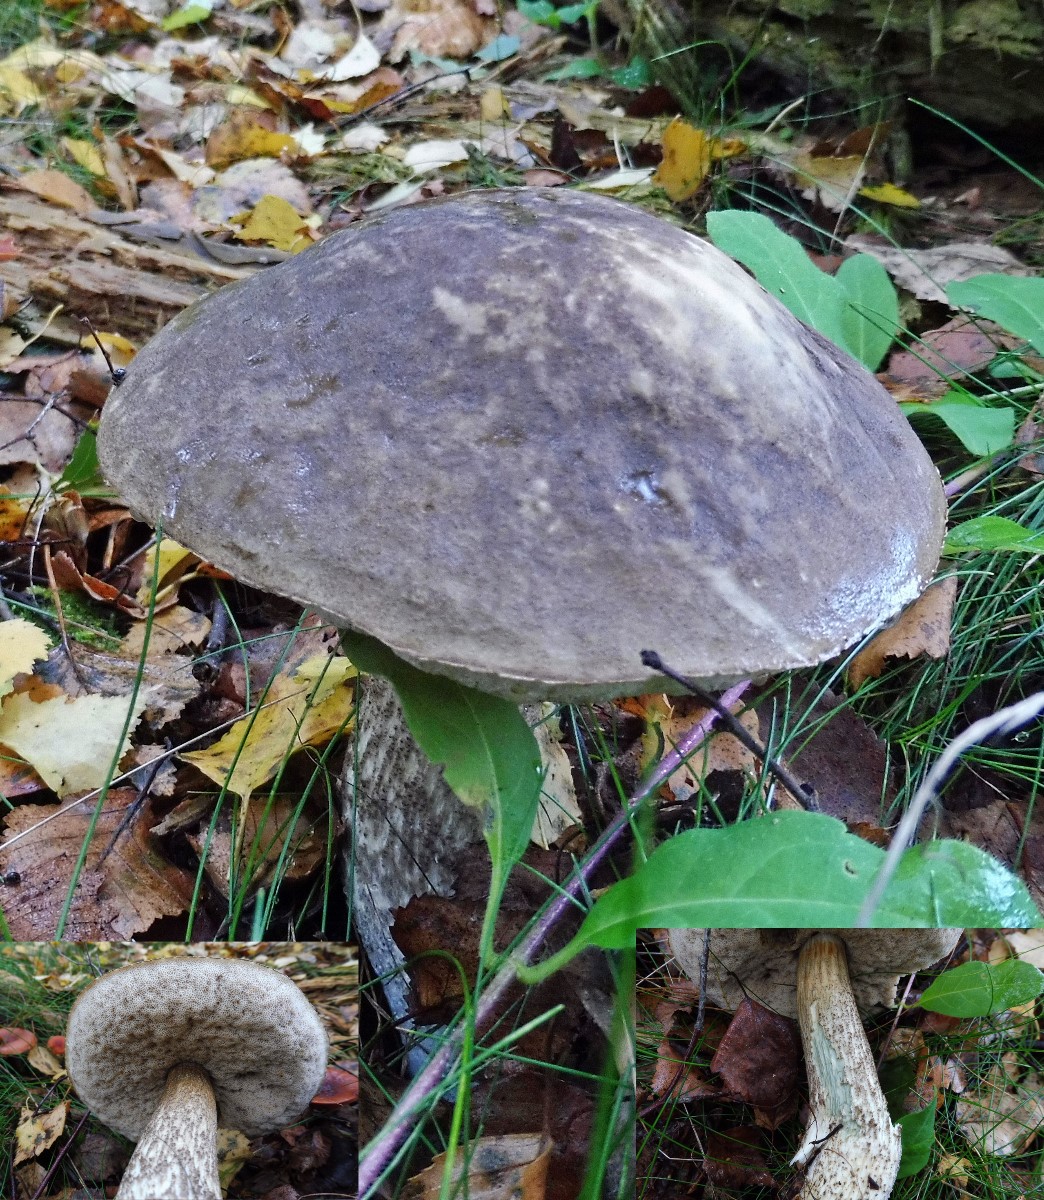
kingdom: Fungi
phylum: Basidiomycota
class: Agaricomycetes
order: Boletales
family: Boletaceae
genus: Leccinum
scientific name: Leccinum variicolor
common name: flammet skælrørhat
